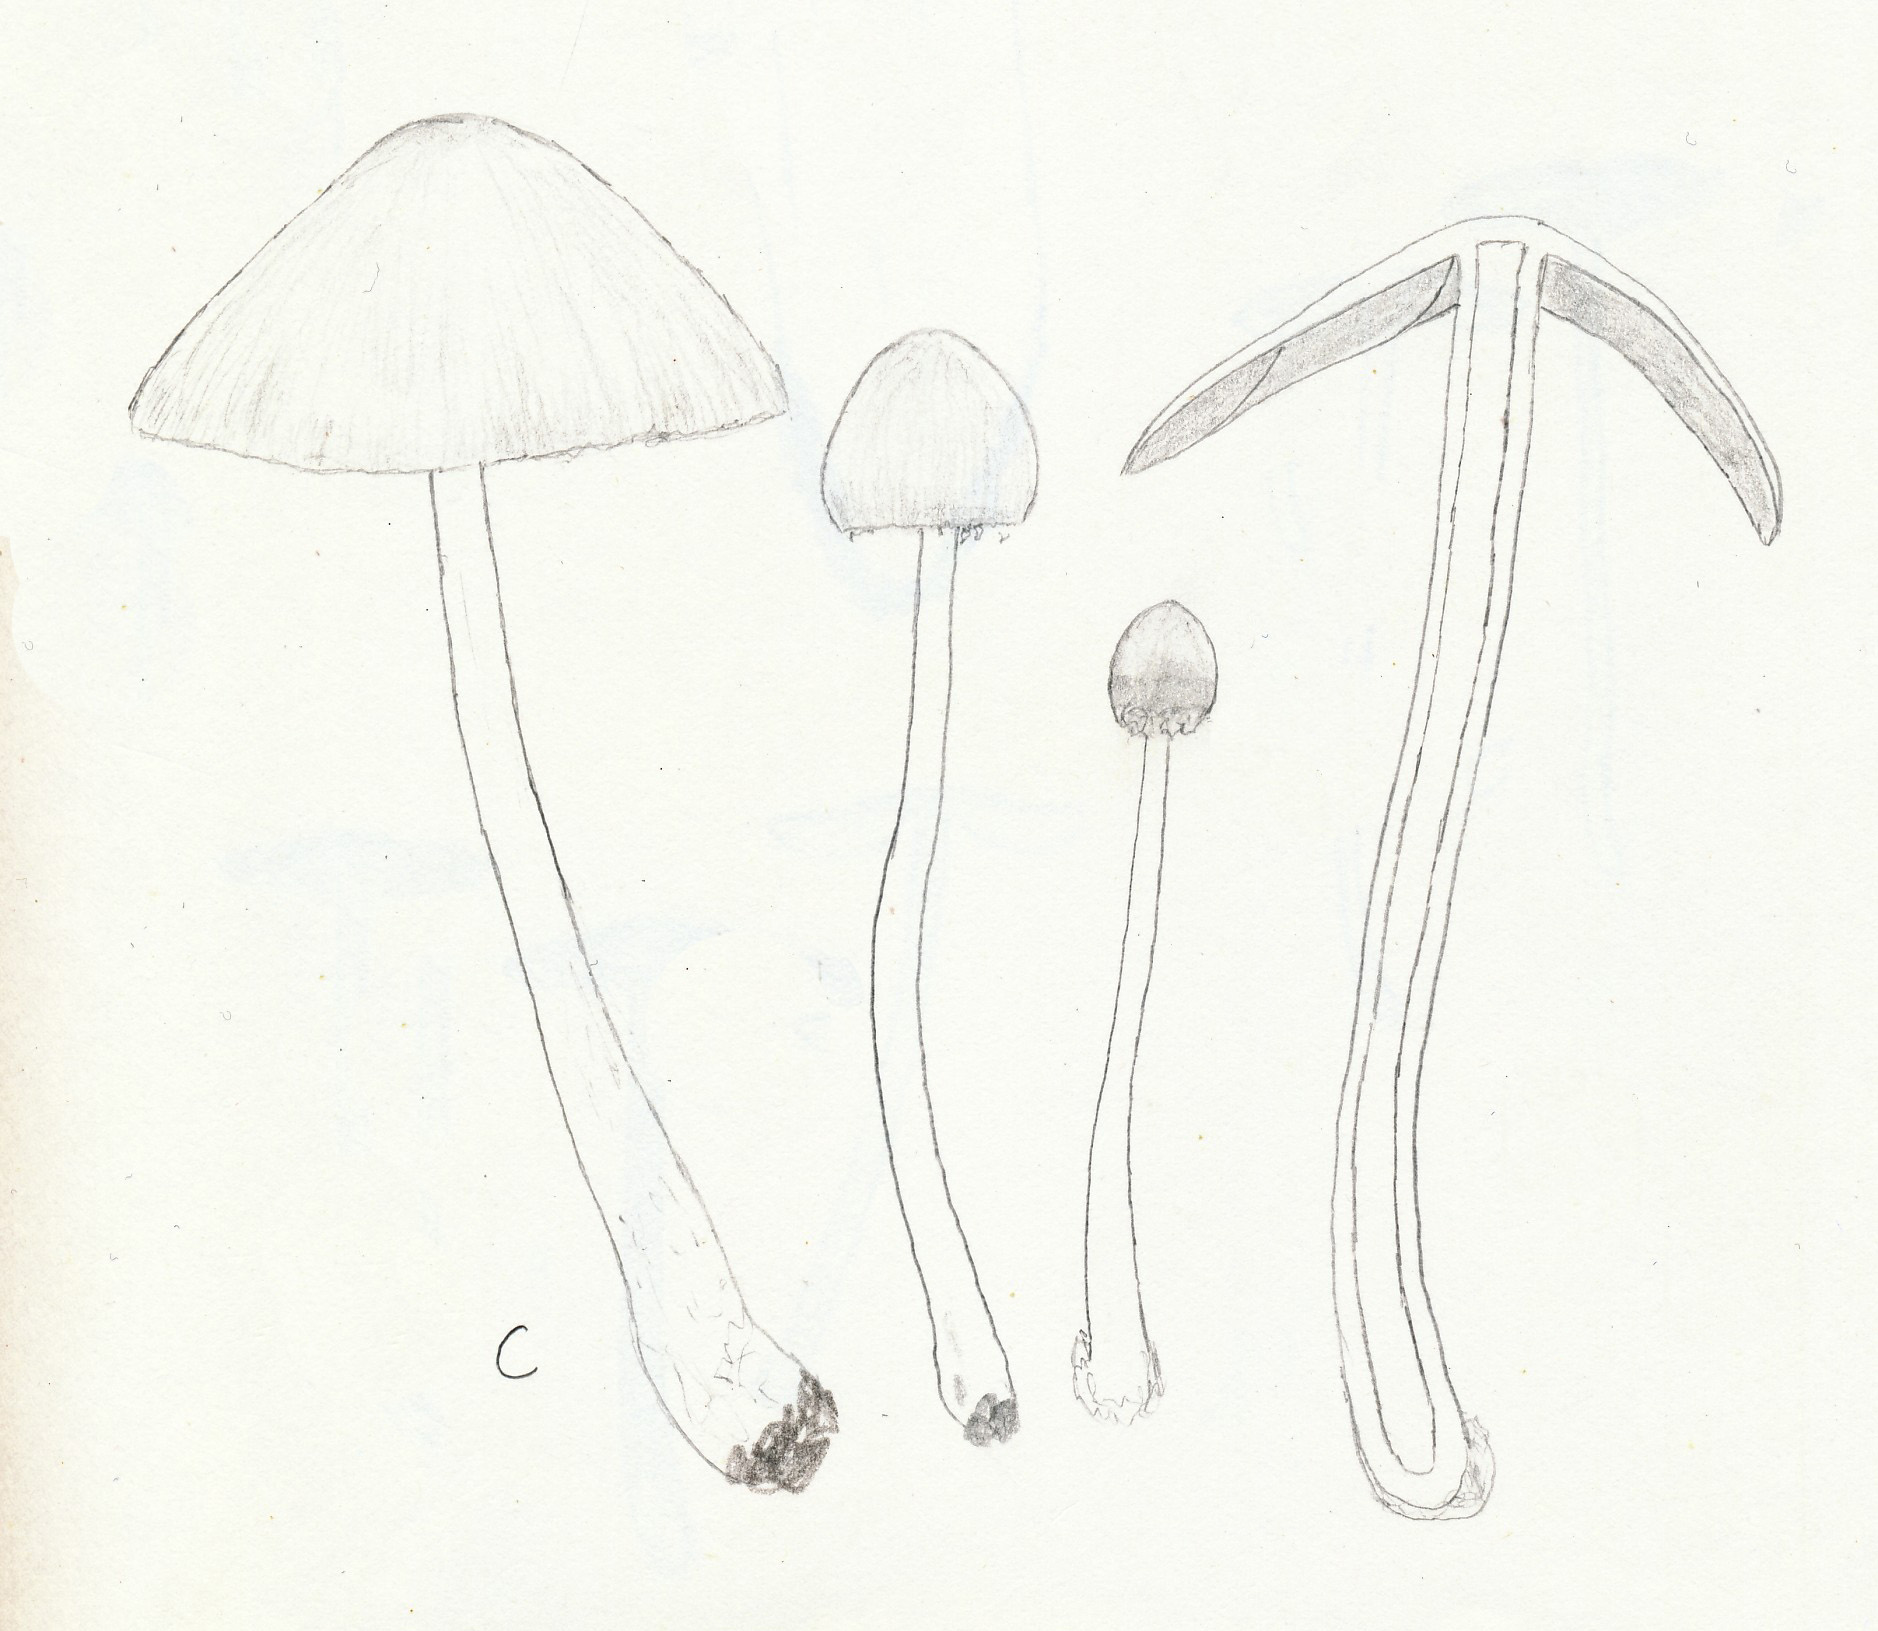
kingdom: Fungi
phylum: Basidiomycota
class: Agaricomycetes
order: Agaricales
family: Psathyrellaceae
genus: Candolleomyces
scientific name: Candolleomyces candolleanus
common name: Candolles mørkhat
